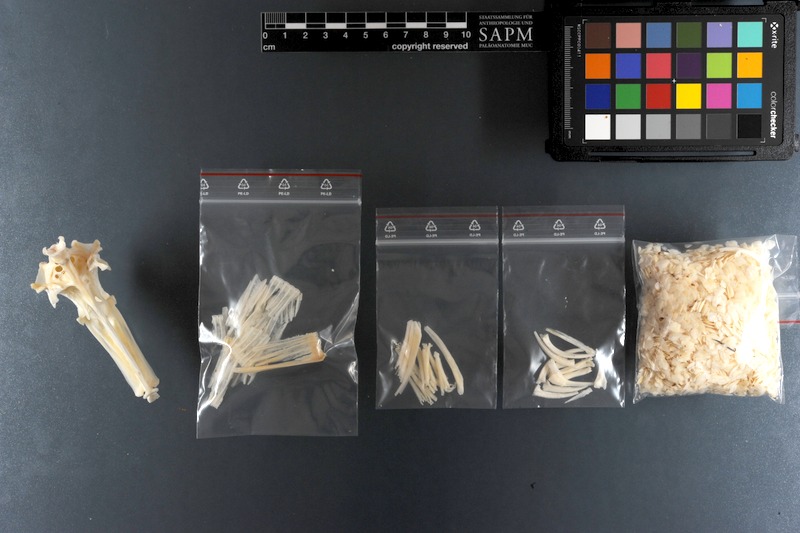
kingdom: Animalia
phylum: Chordata
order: Tetraodontiformes
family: Balistidae
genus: Sufflamen
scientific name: Sufflamen fraenatum
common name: Bridle triggerfish
